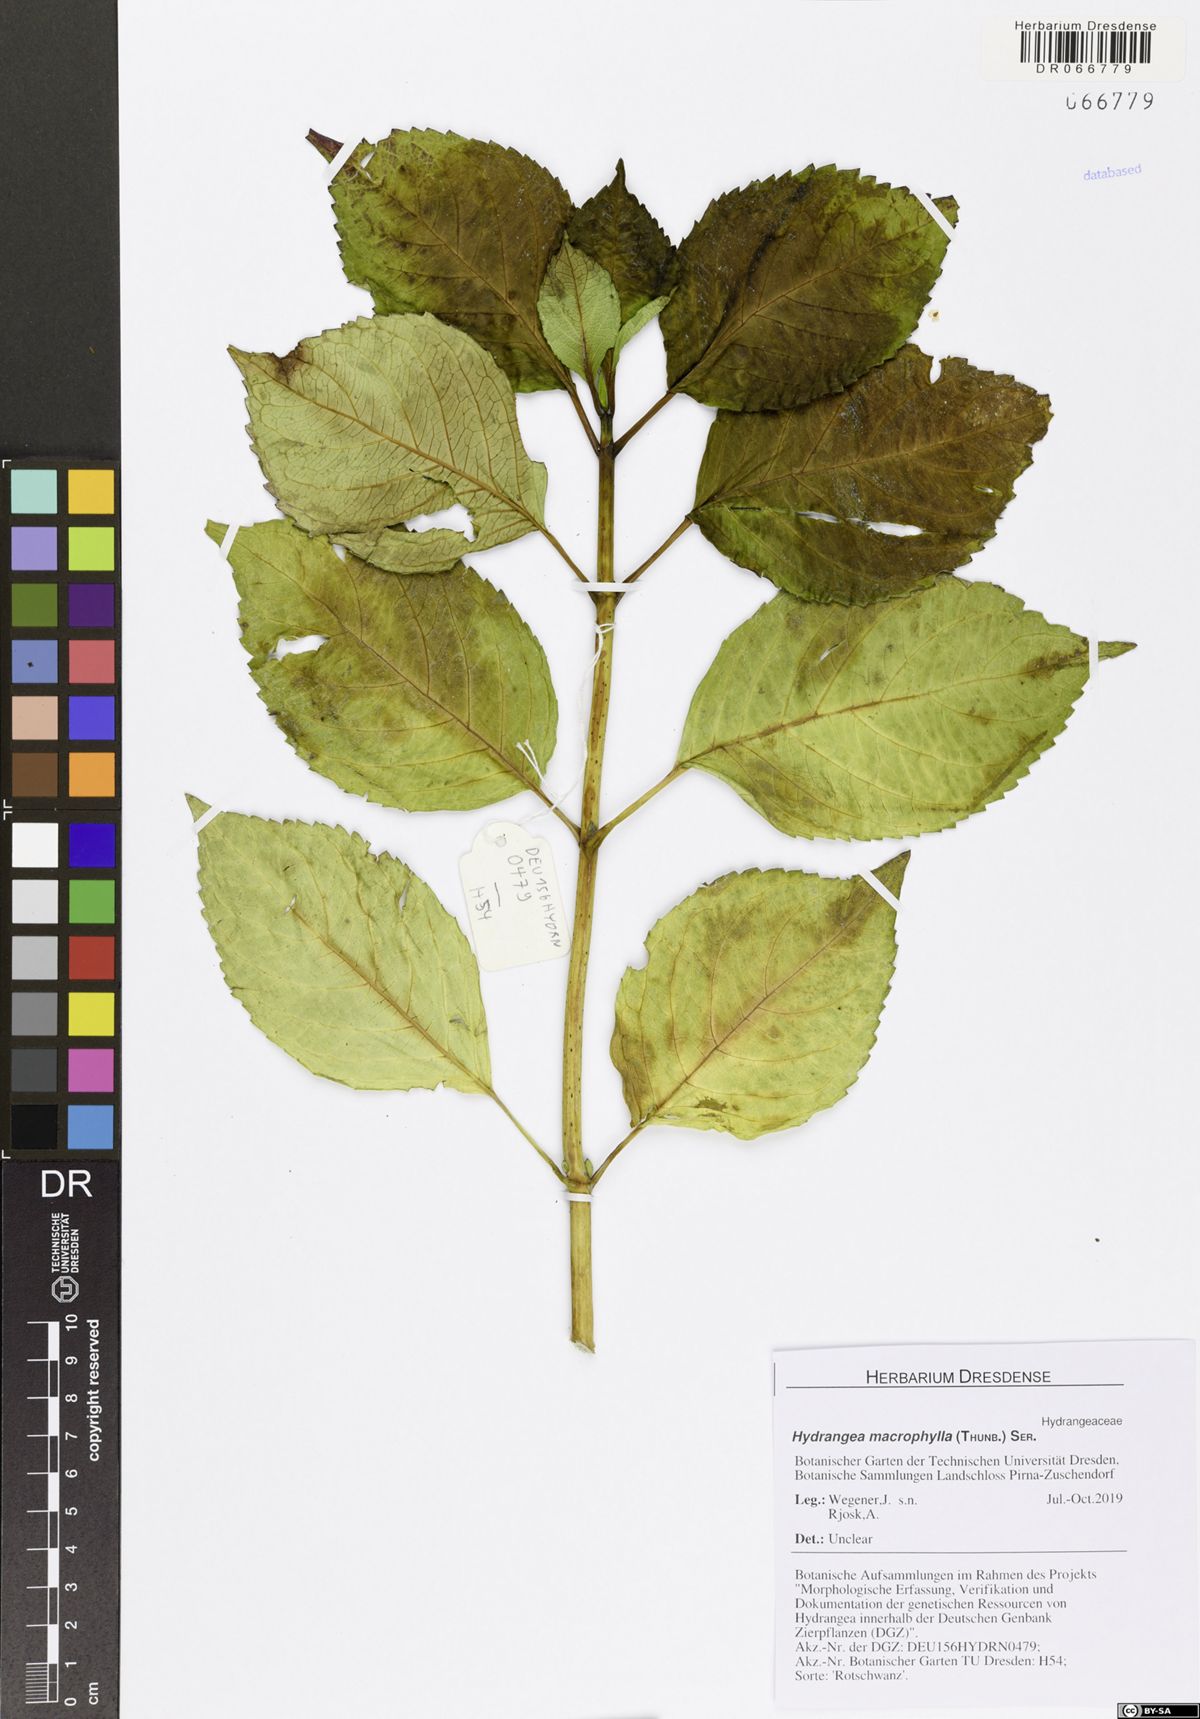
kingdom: Plantae
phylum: Tracheophyta
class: Magnoliopsida
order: Cornales
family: Hydrangeaceae
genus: Hydrangea
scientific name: Hydrangea macrophylla
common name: Hydrangea
